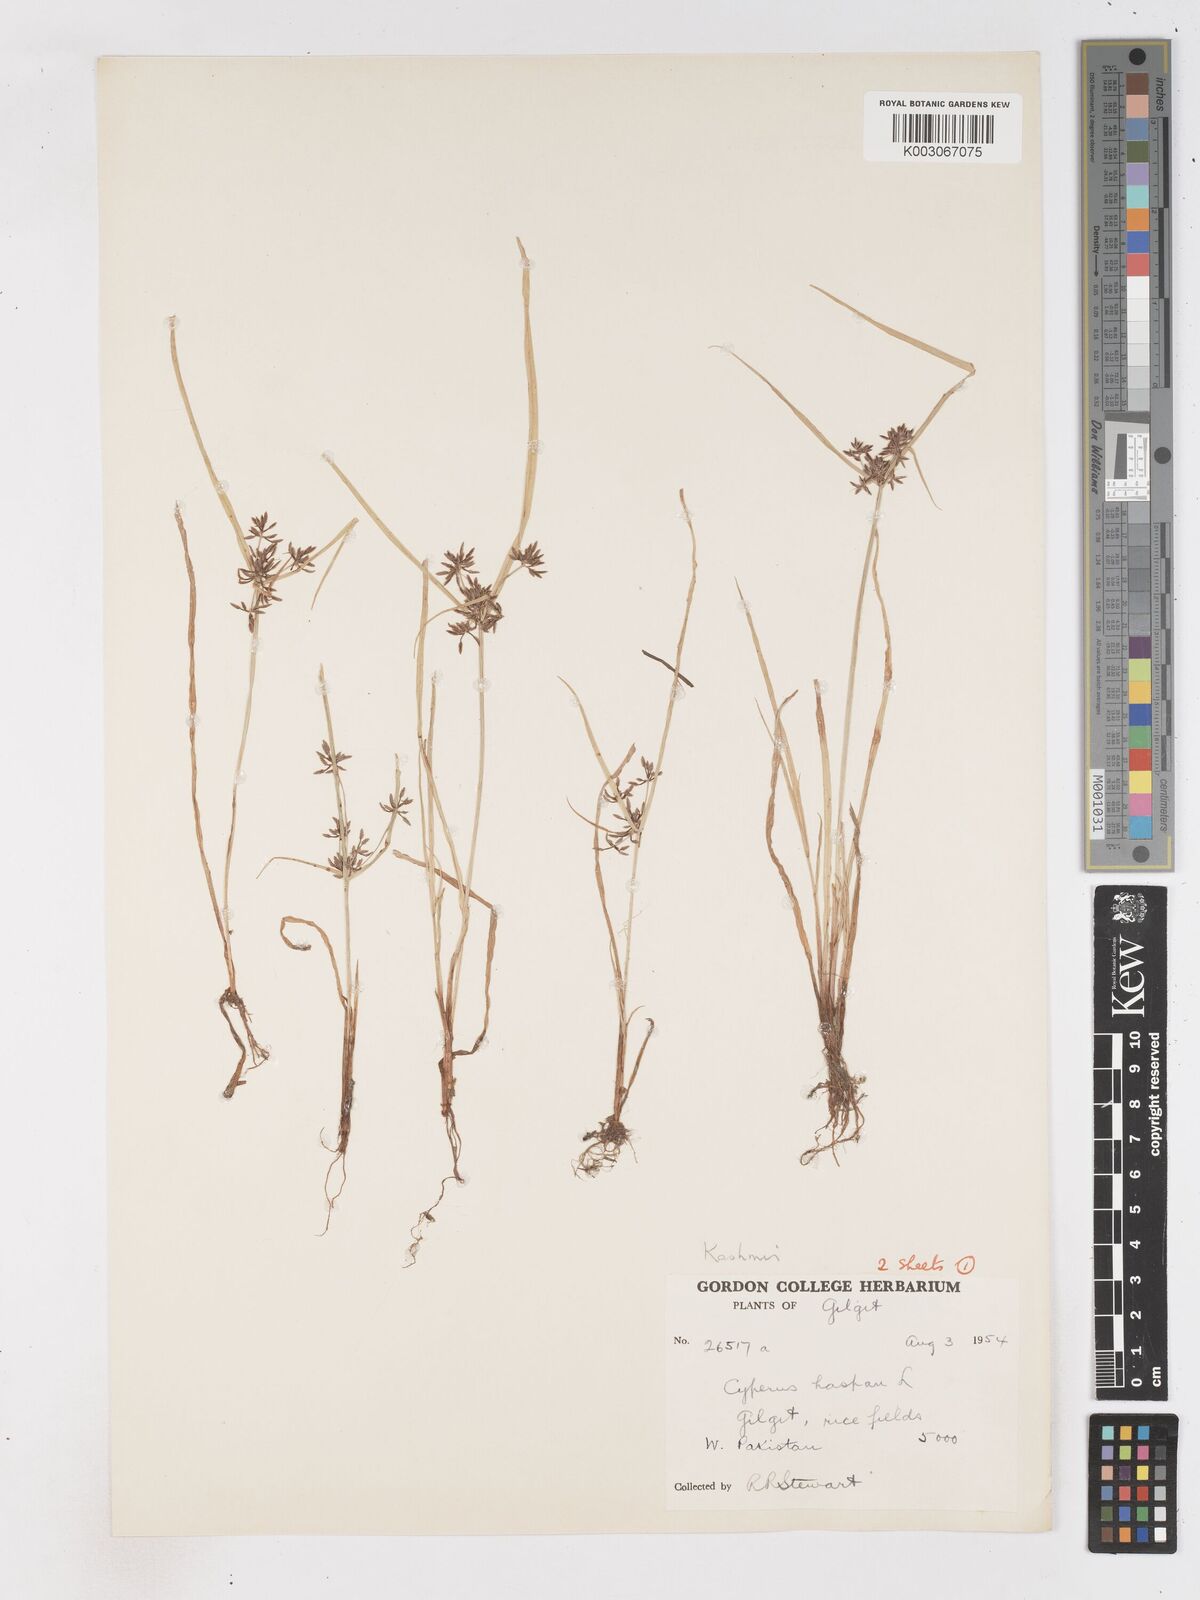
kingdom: Plantae
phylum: Tracheophyta
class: Liliopsida
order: Poales
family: Cyperaceae
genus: Cyperus
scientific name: Cyperus haspan
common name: Haspan flatsedge
